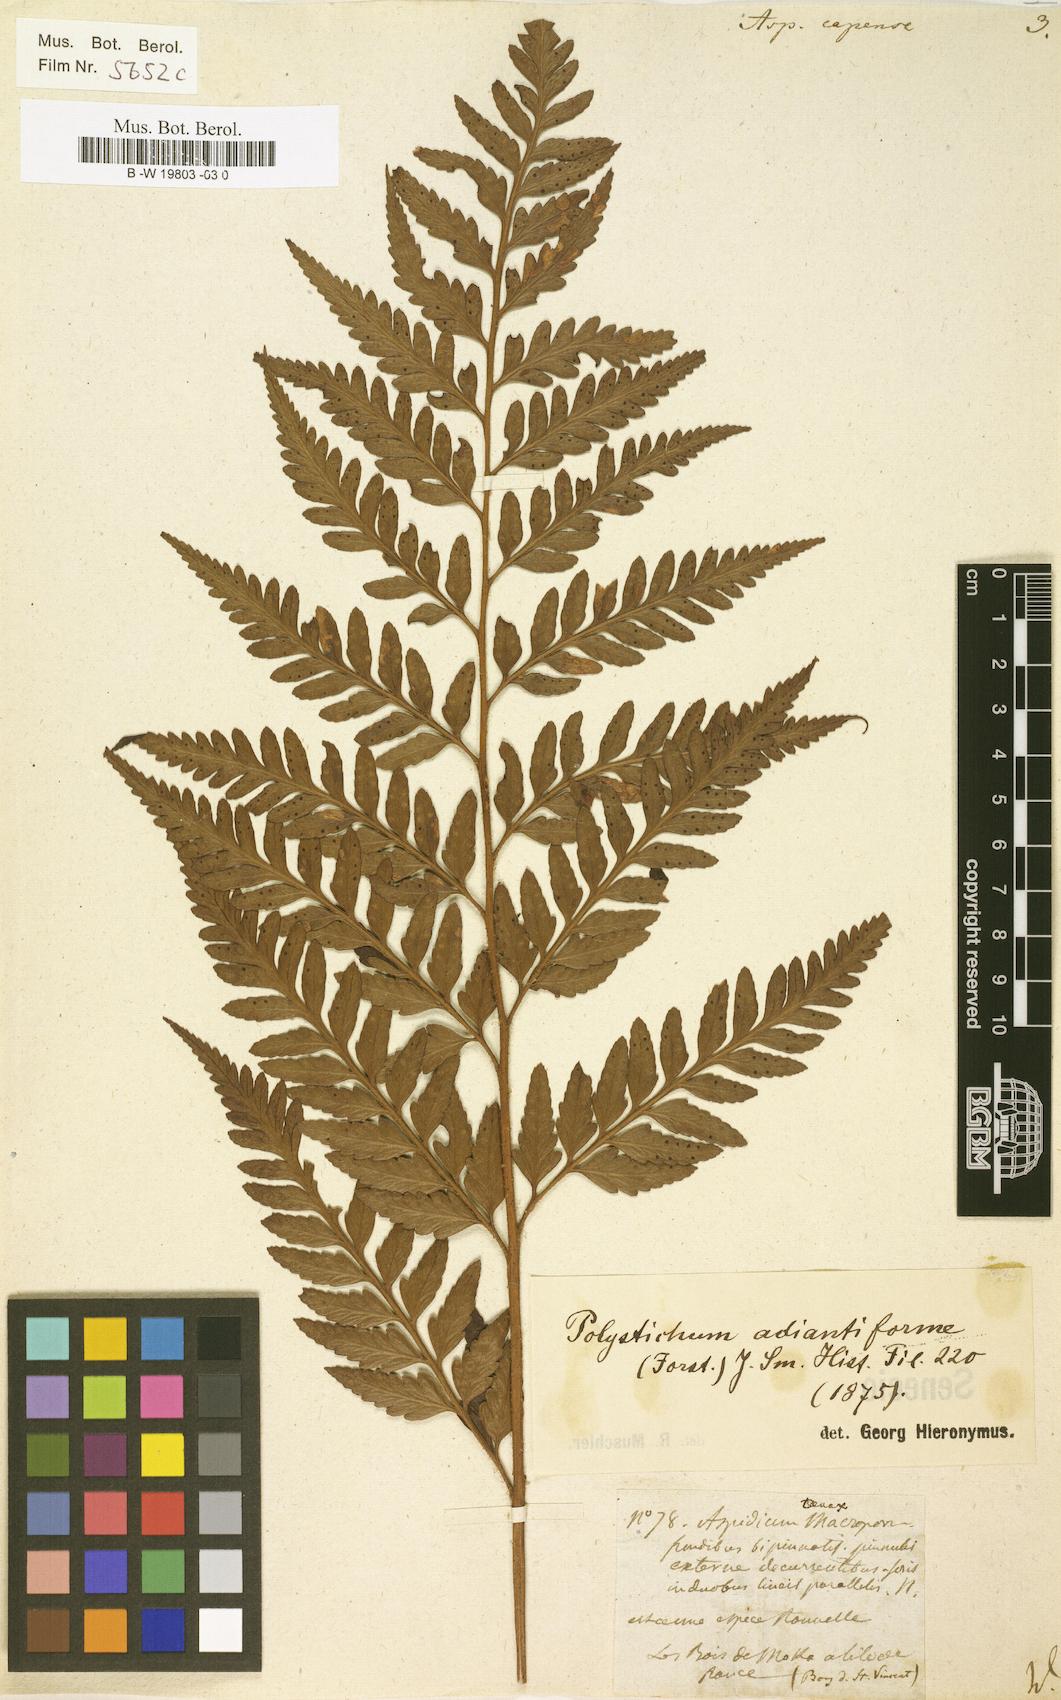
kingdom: Plantae
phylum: Tracheophyta
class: Polypodiopsida
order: Polypodiales
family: Dryopteridaceae
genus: Rumohra
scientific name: Rumohra adiantiformis
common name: Leather fern
